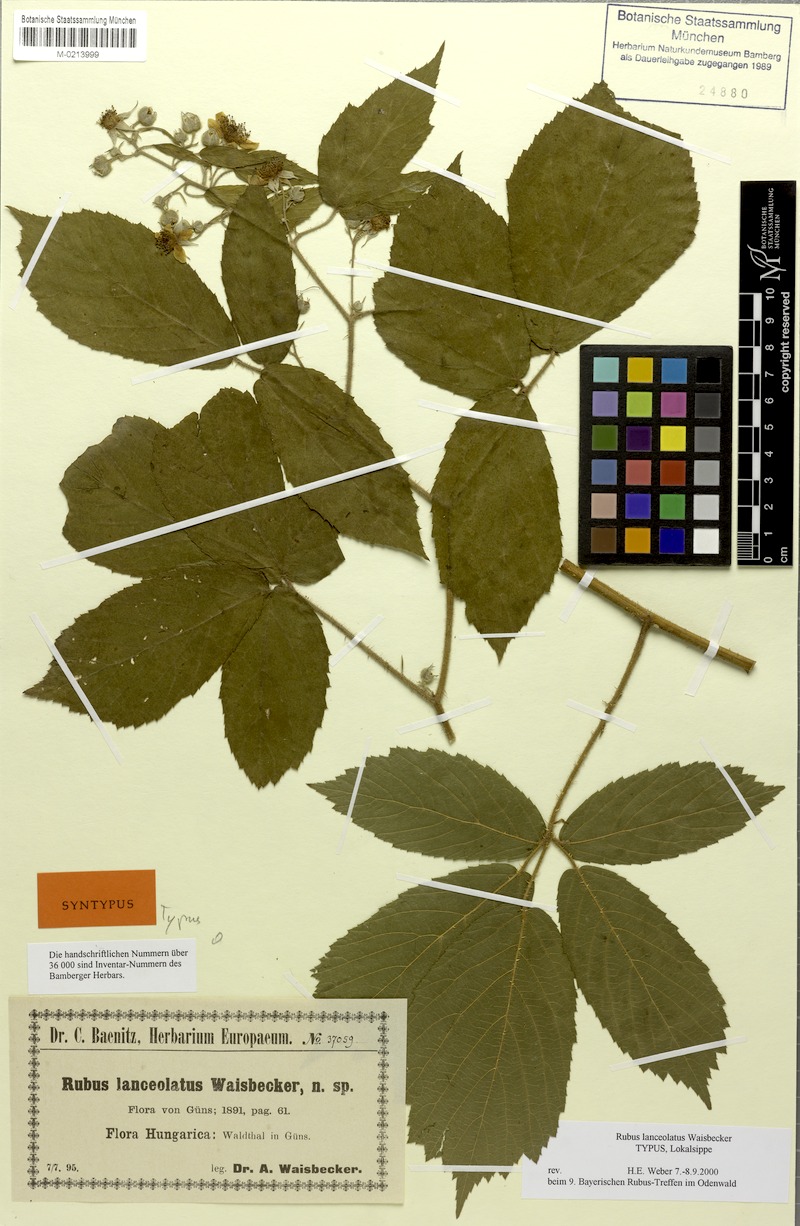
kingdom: Plantae
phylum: Tracheophyta
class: Magnoliopsida
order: Rosales
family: Rosaceae
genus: Rubus
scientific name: Rubus lanceolatus
